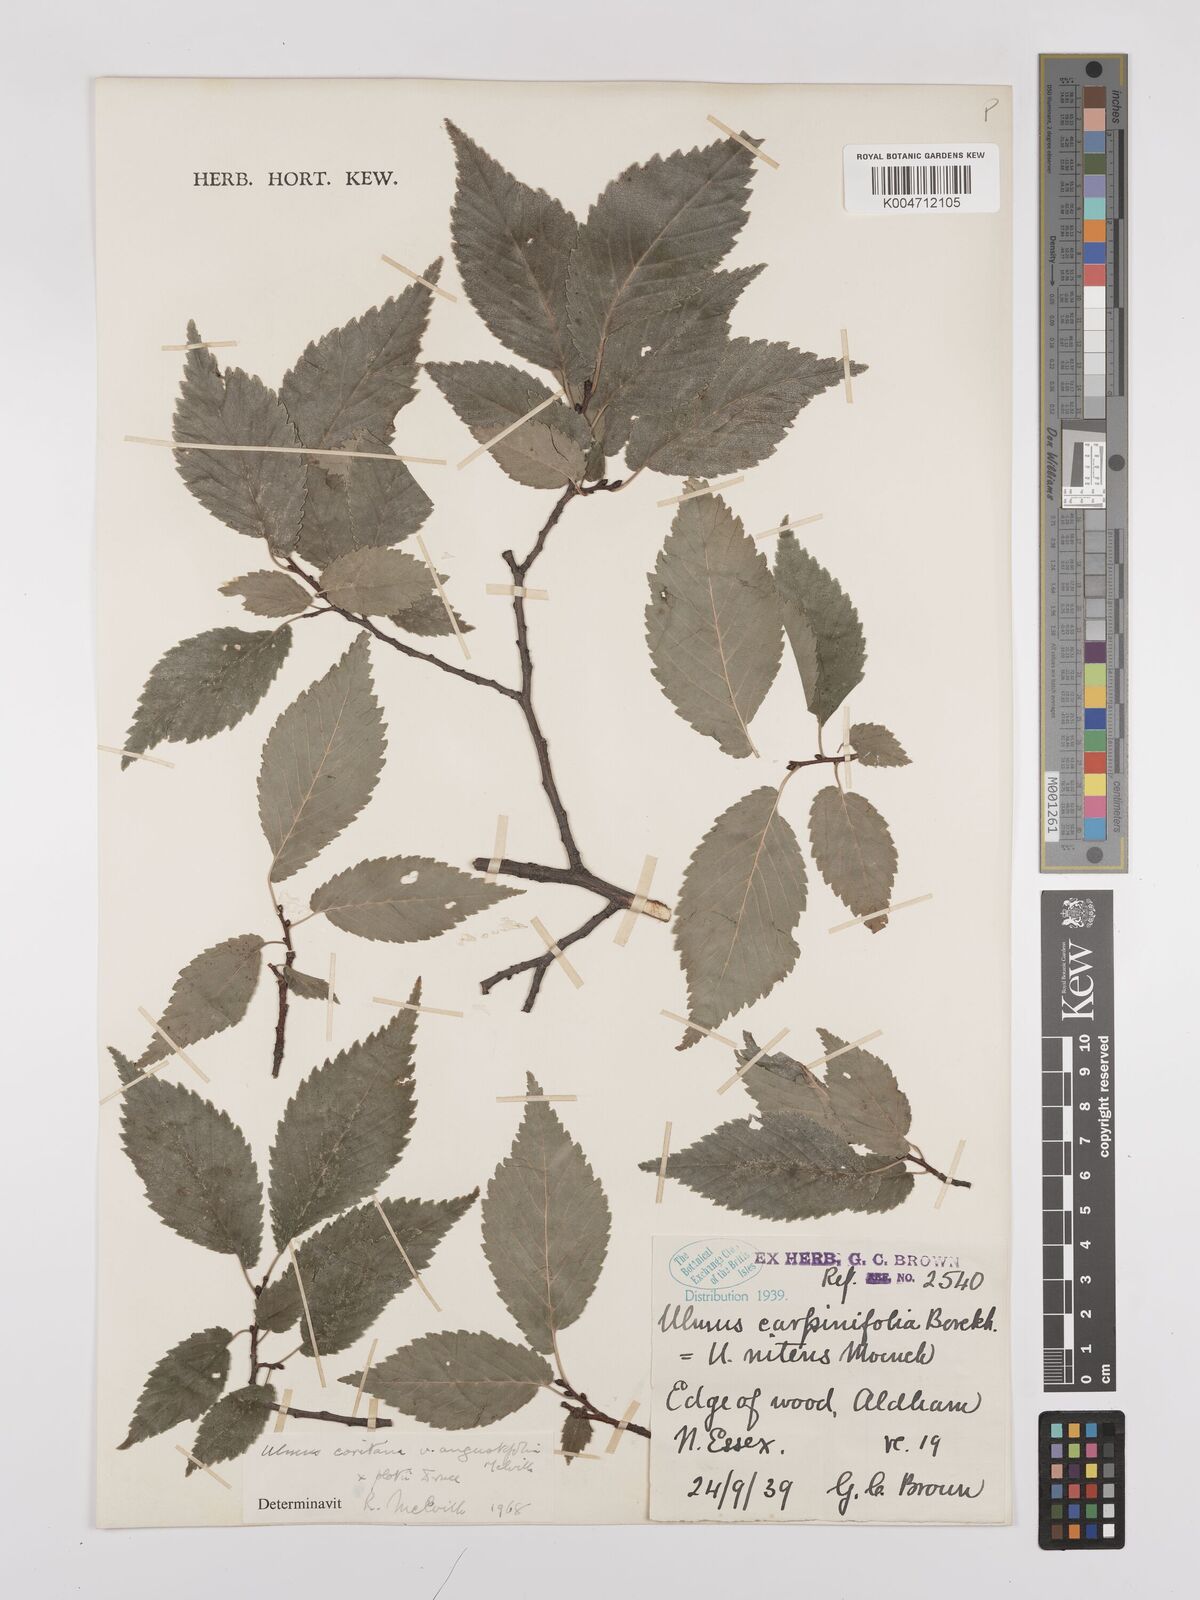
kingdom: Plantae
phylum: Tracheophyta
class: Magnoliopsida
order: Rosales
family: Ulmaceae
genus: Ulmus
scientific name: Ulmus minor
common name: Small-leaved elm
